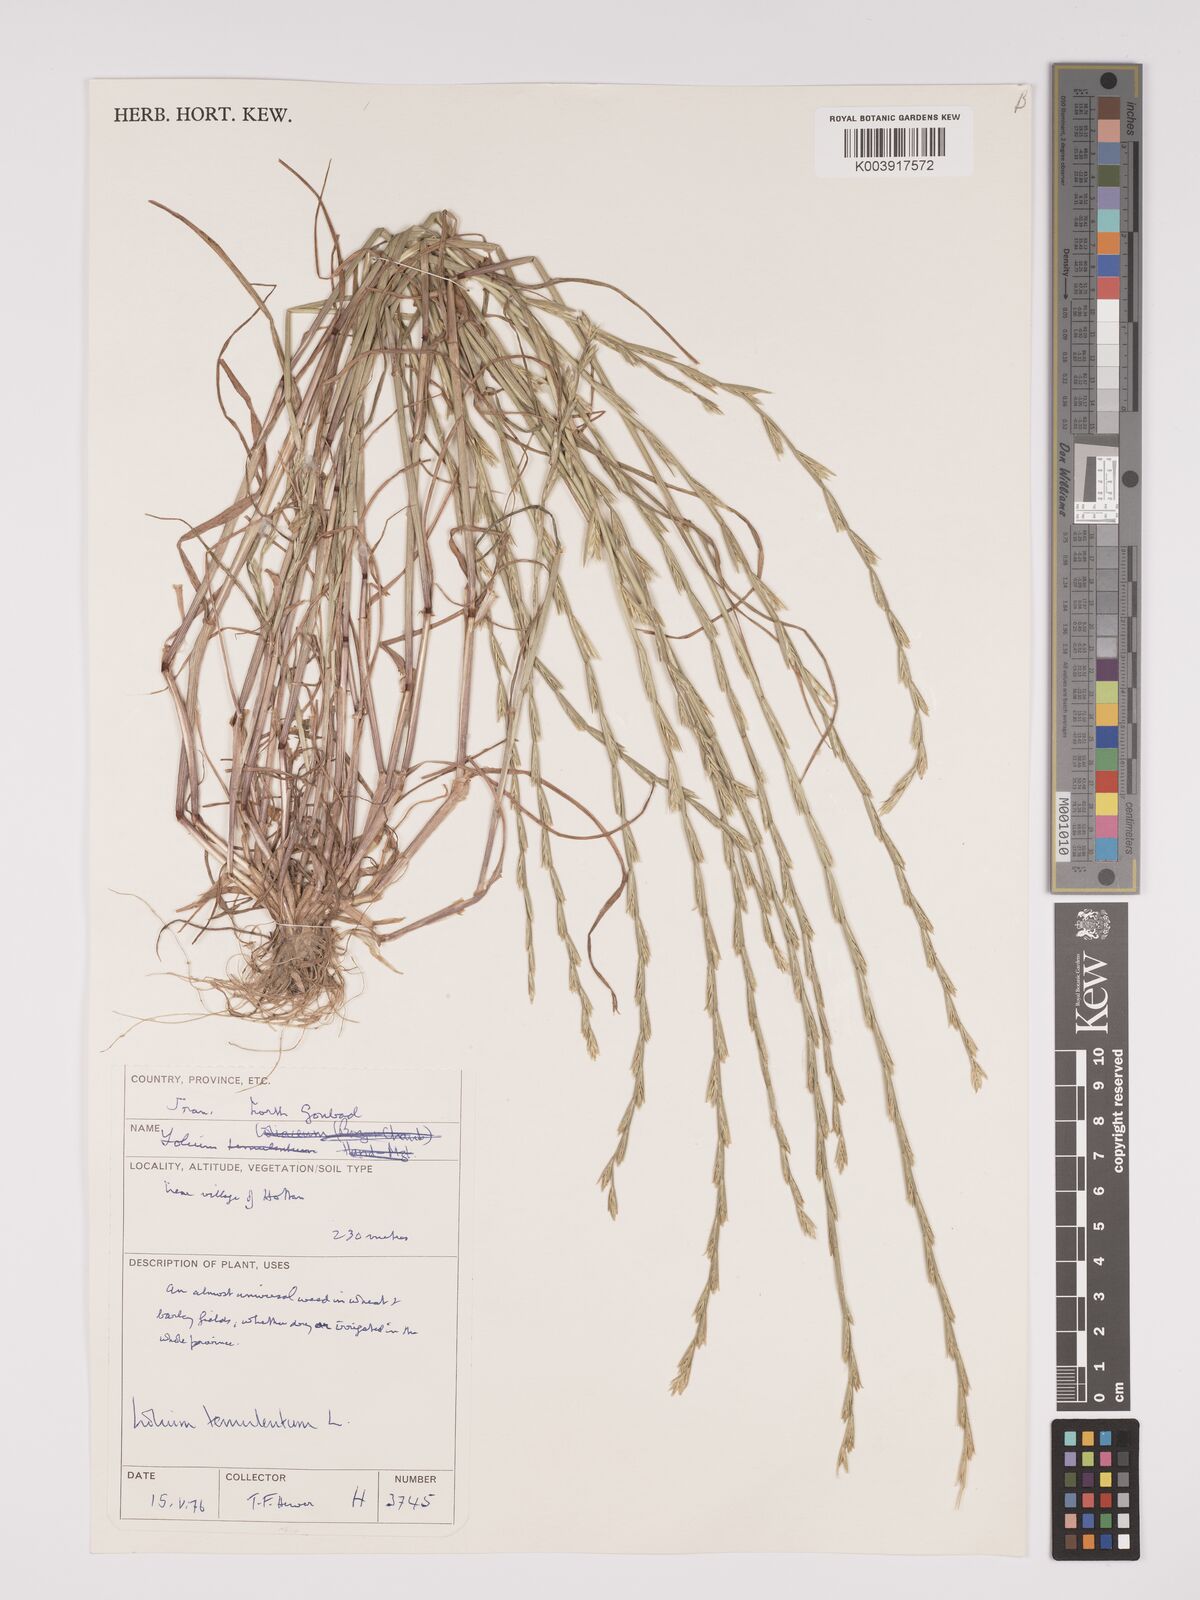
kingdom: Plantae
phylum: Tracheophyta
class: Liliopsida
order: Poales
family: Poaceae
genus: Lolium
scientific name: Lolium temulentum
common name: Darnel
